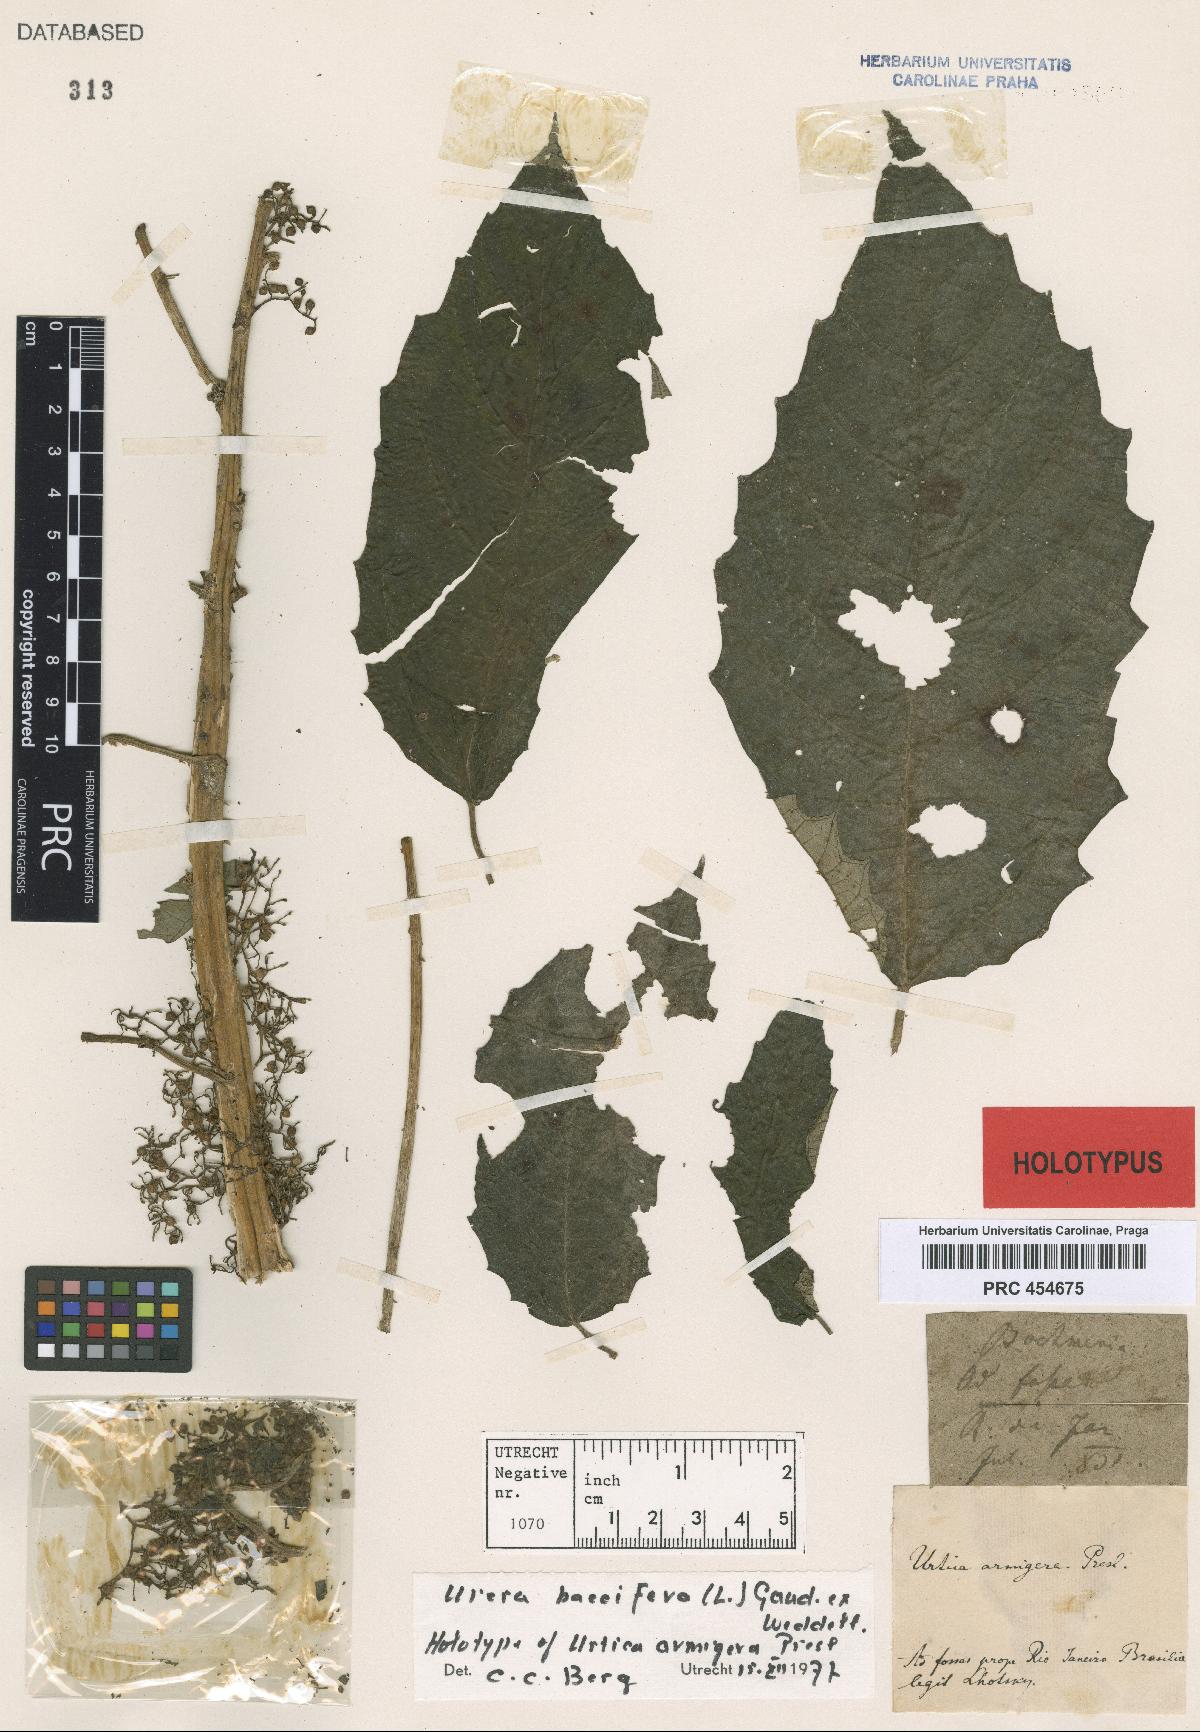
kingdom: Plantae
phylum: Tracheophyta
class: Magnoliopsida
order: Rosales
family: Urticaceae
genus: Urera
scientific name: Urera baccifera
